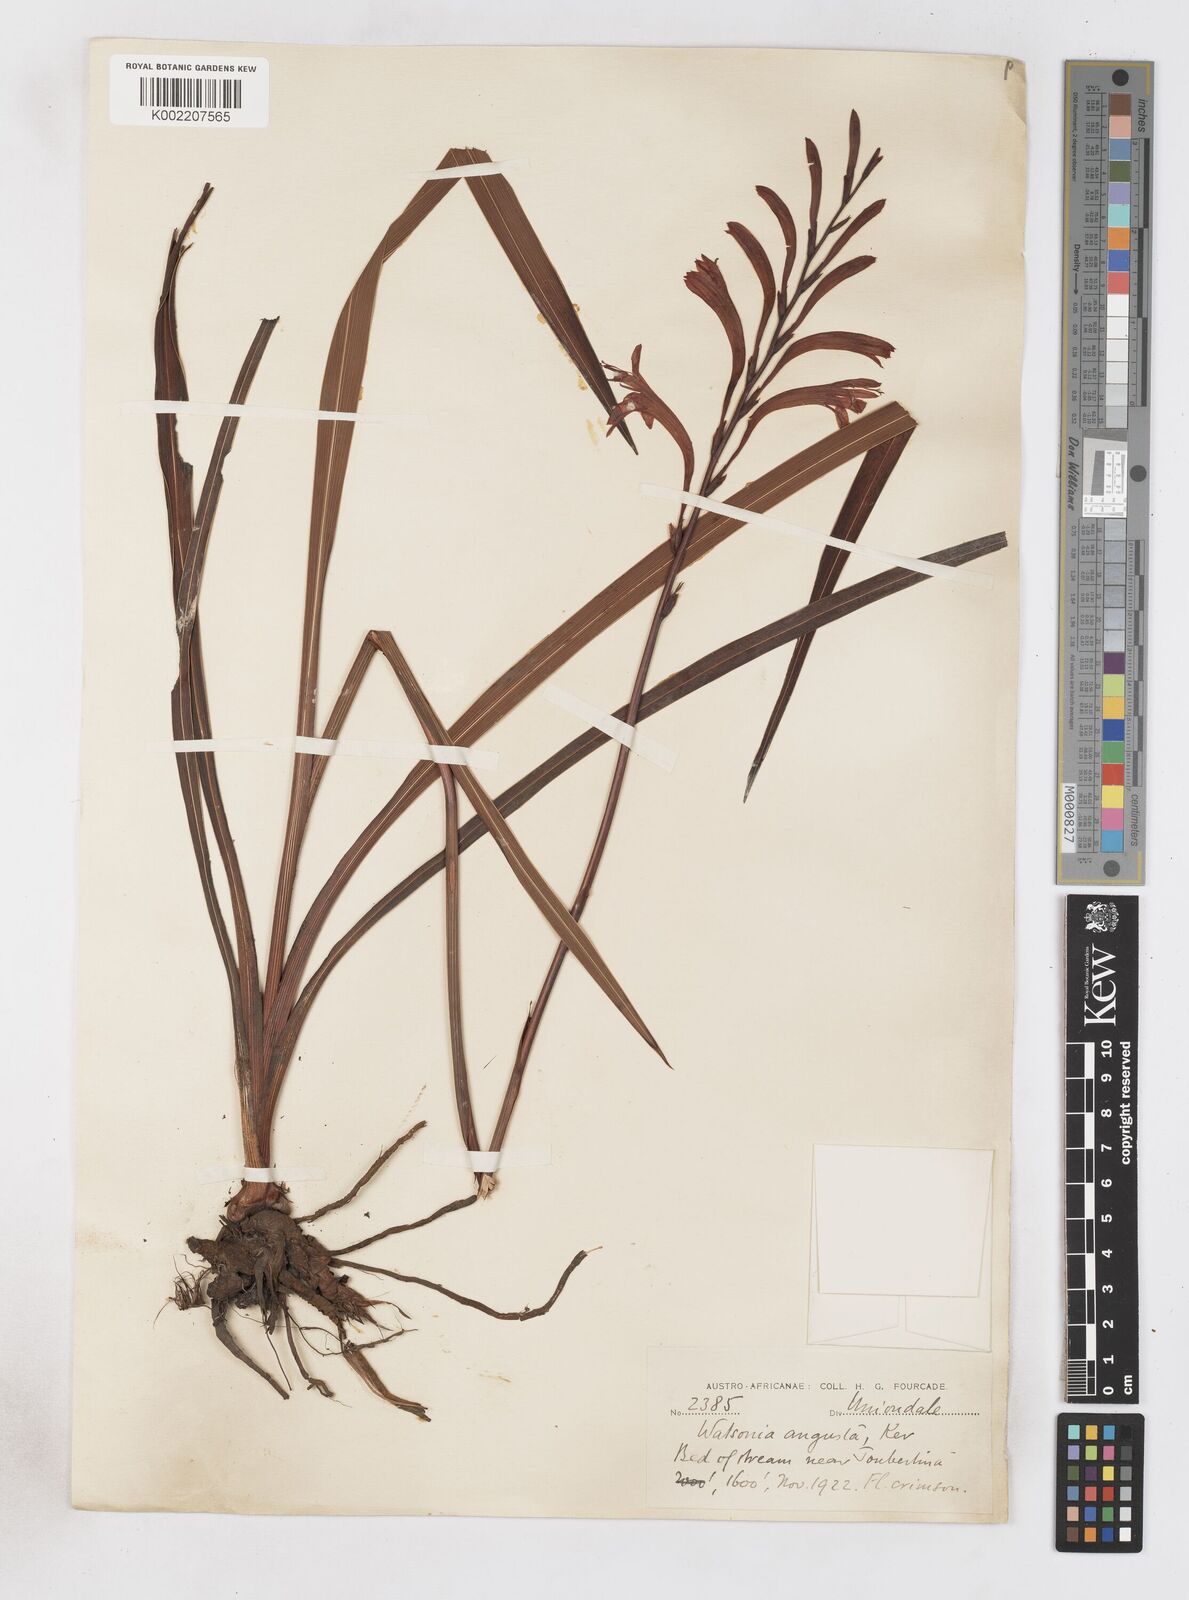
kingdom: Plantae
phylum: Tracheophyta
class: Liliopsida
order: Asparagales
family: Iridaceae
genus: Watsonia
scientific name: Watsonia angusta
